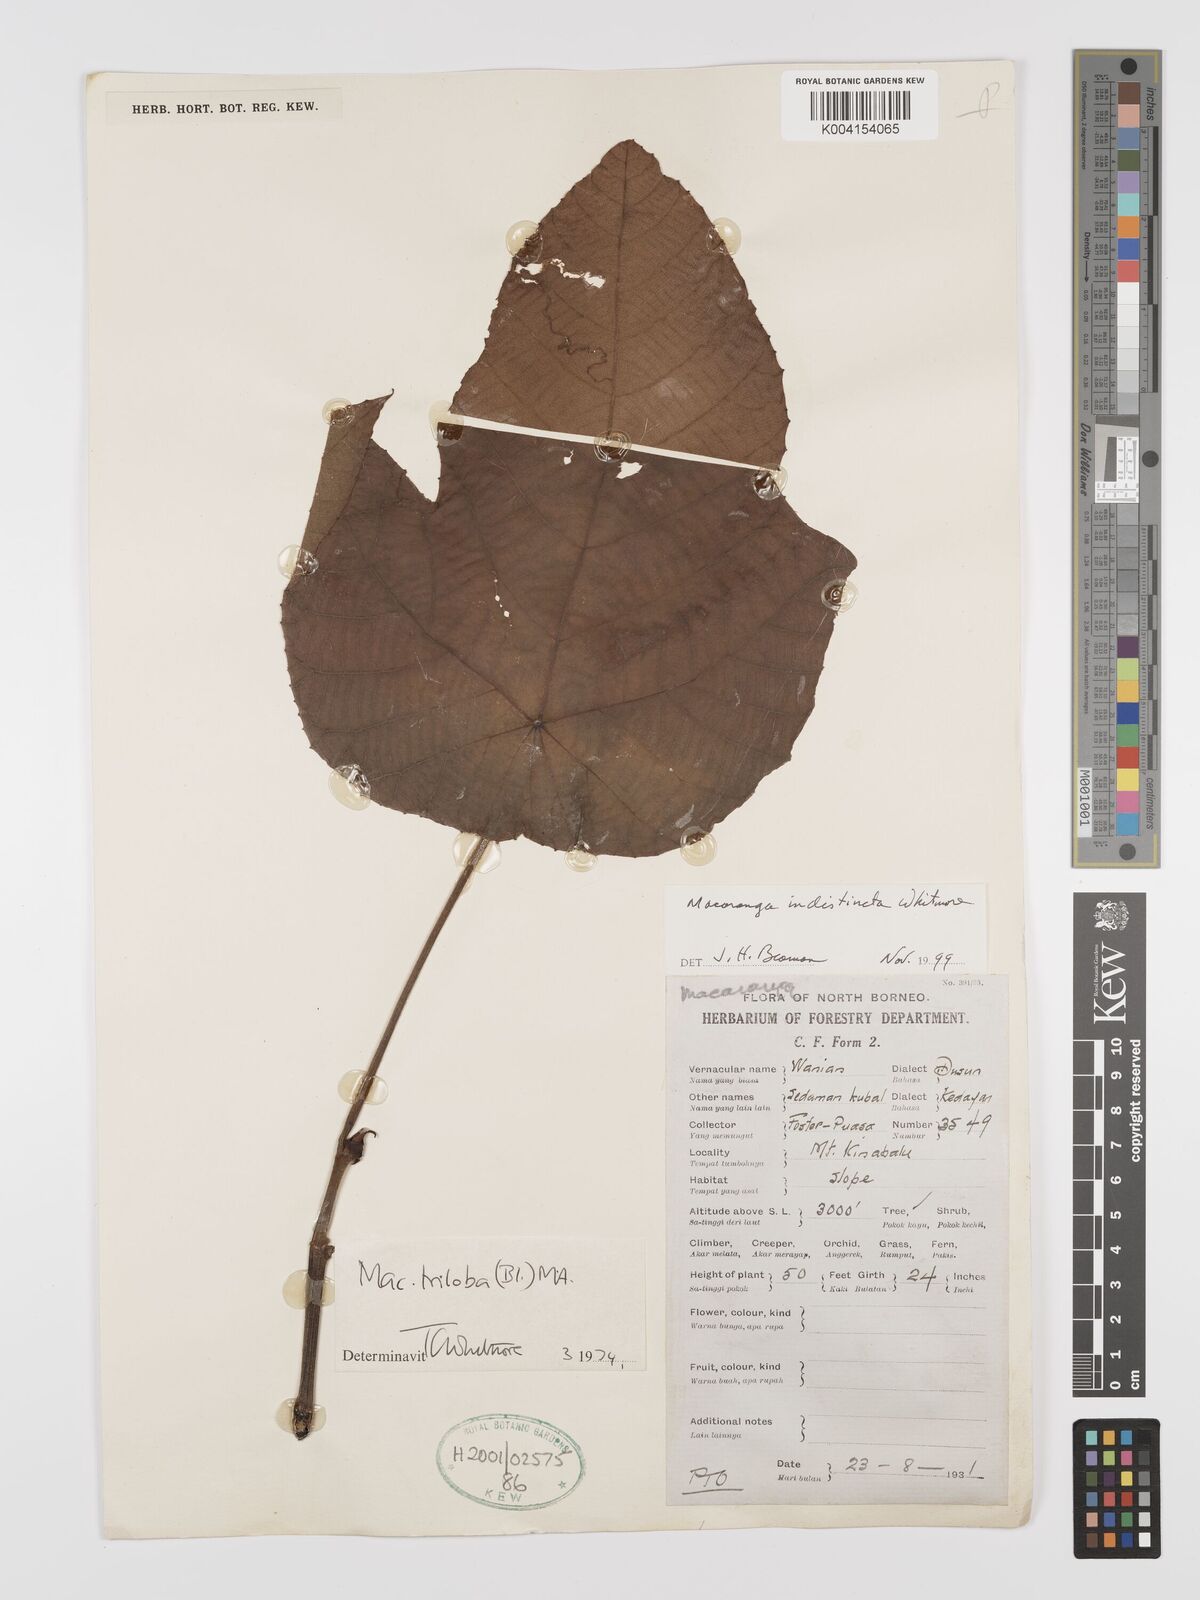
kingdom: Plantae
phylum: Tracheophyta
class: Magnoliopsida
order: Malpighiales
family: Euphorbiaceae
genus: Macaranga
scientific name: Macaranga indistincta
